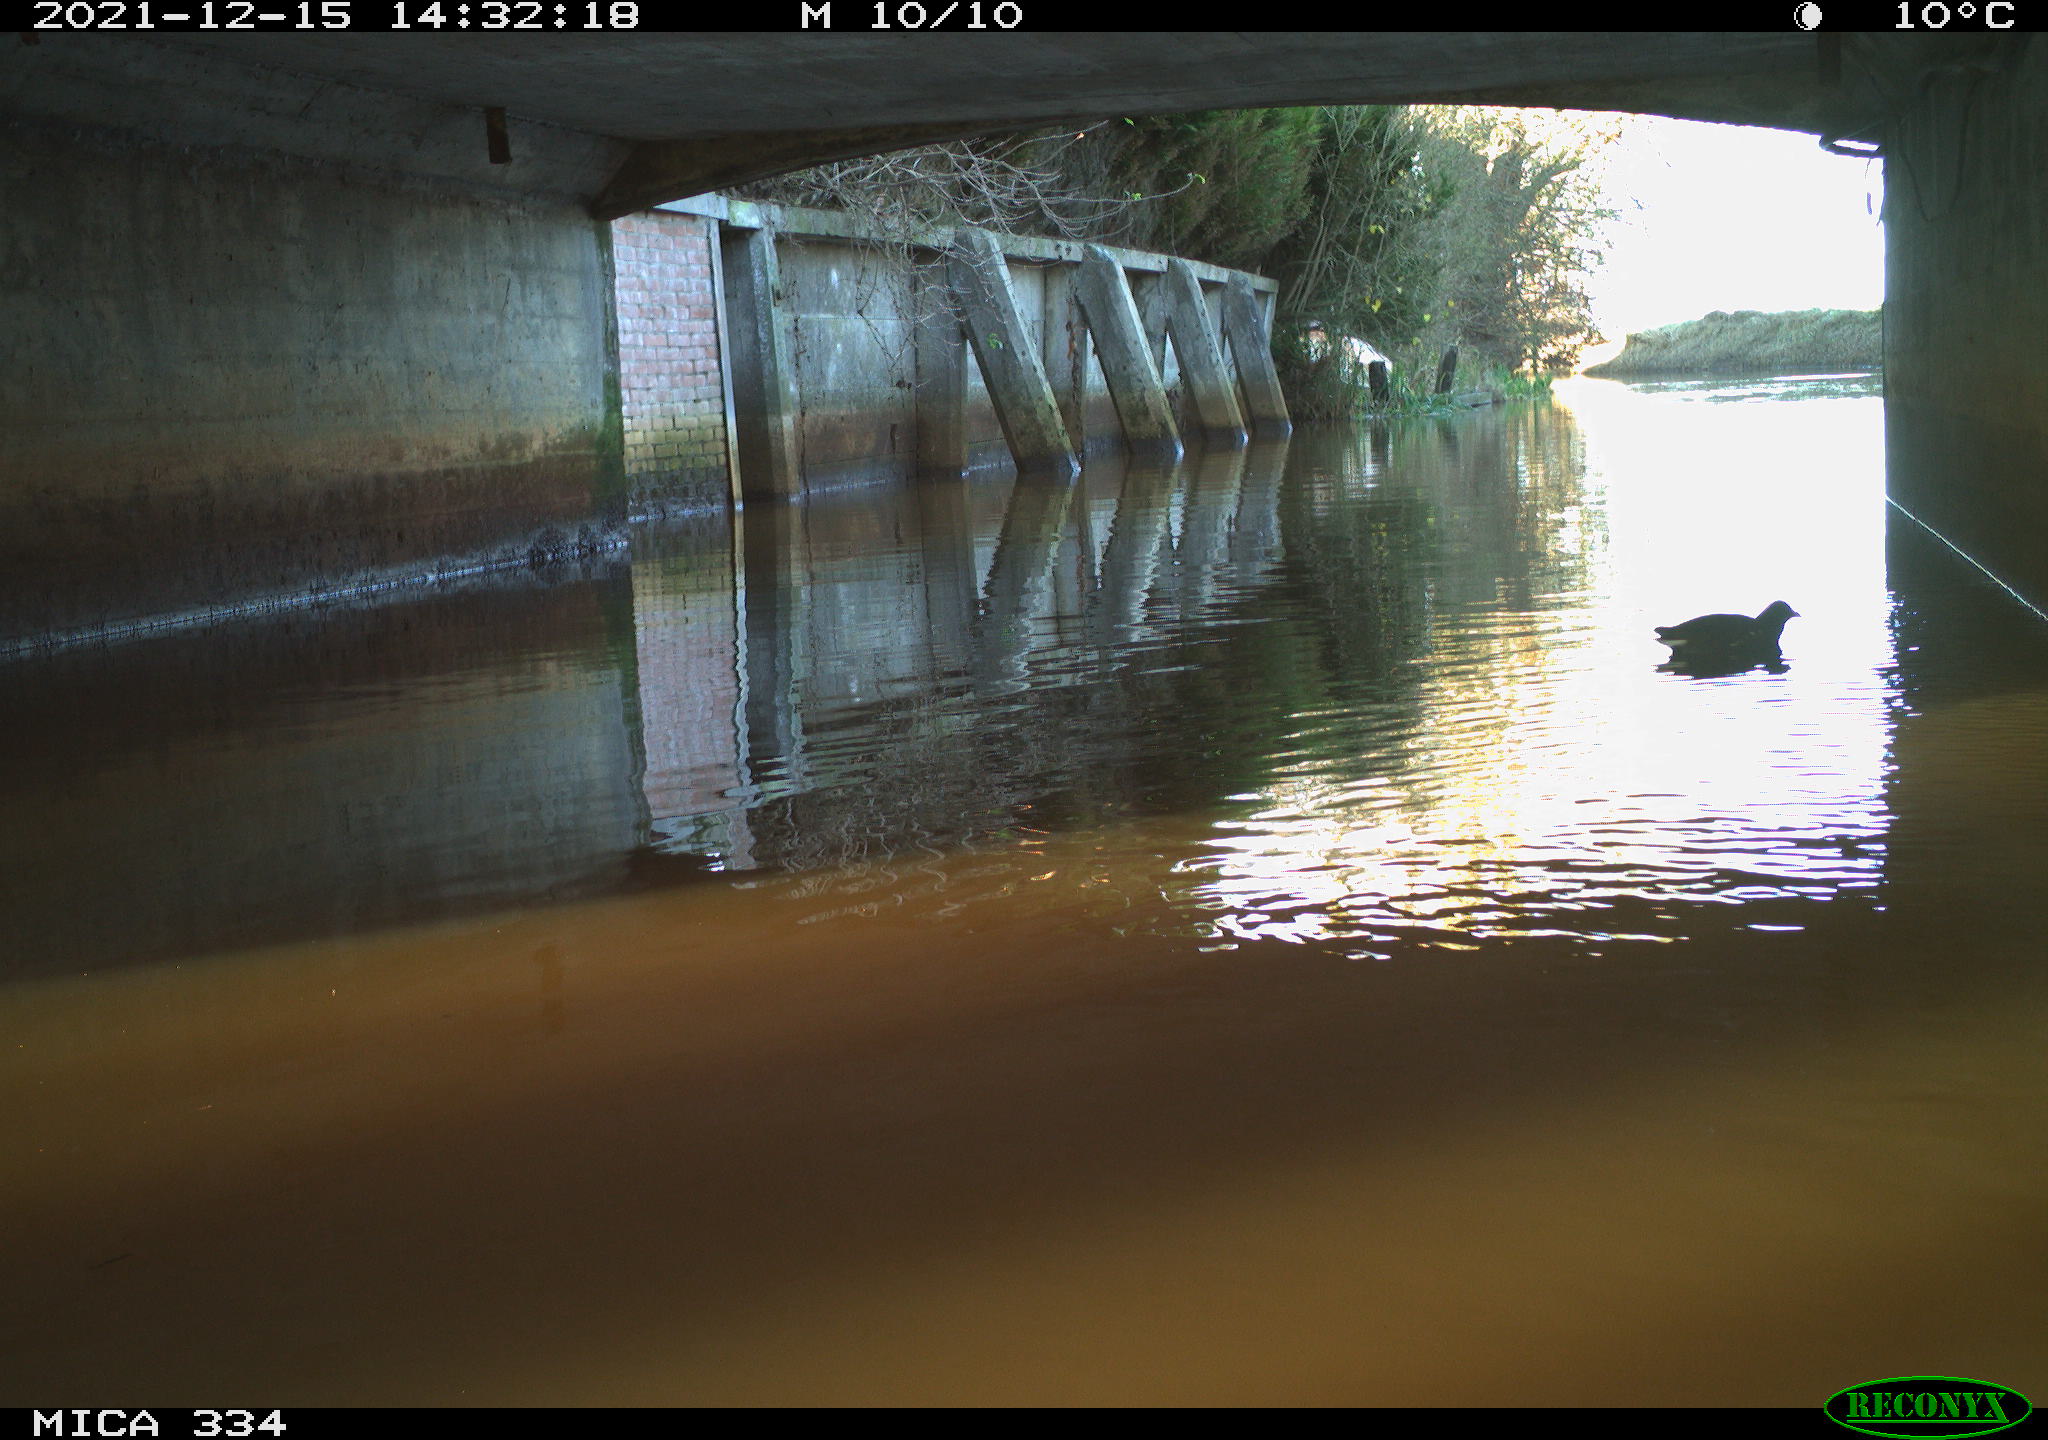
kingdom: Animalia
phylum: Chordata
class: Aves
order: Gruiformes
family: Rallidae
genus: Gallinula
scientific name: Gallinula chloropus
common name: Common moorhen
